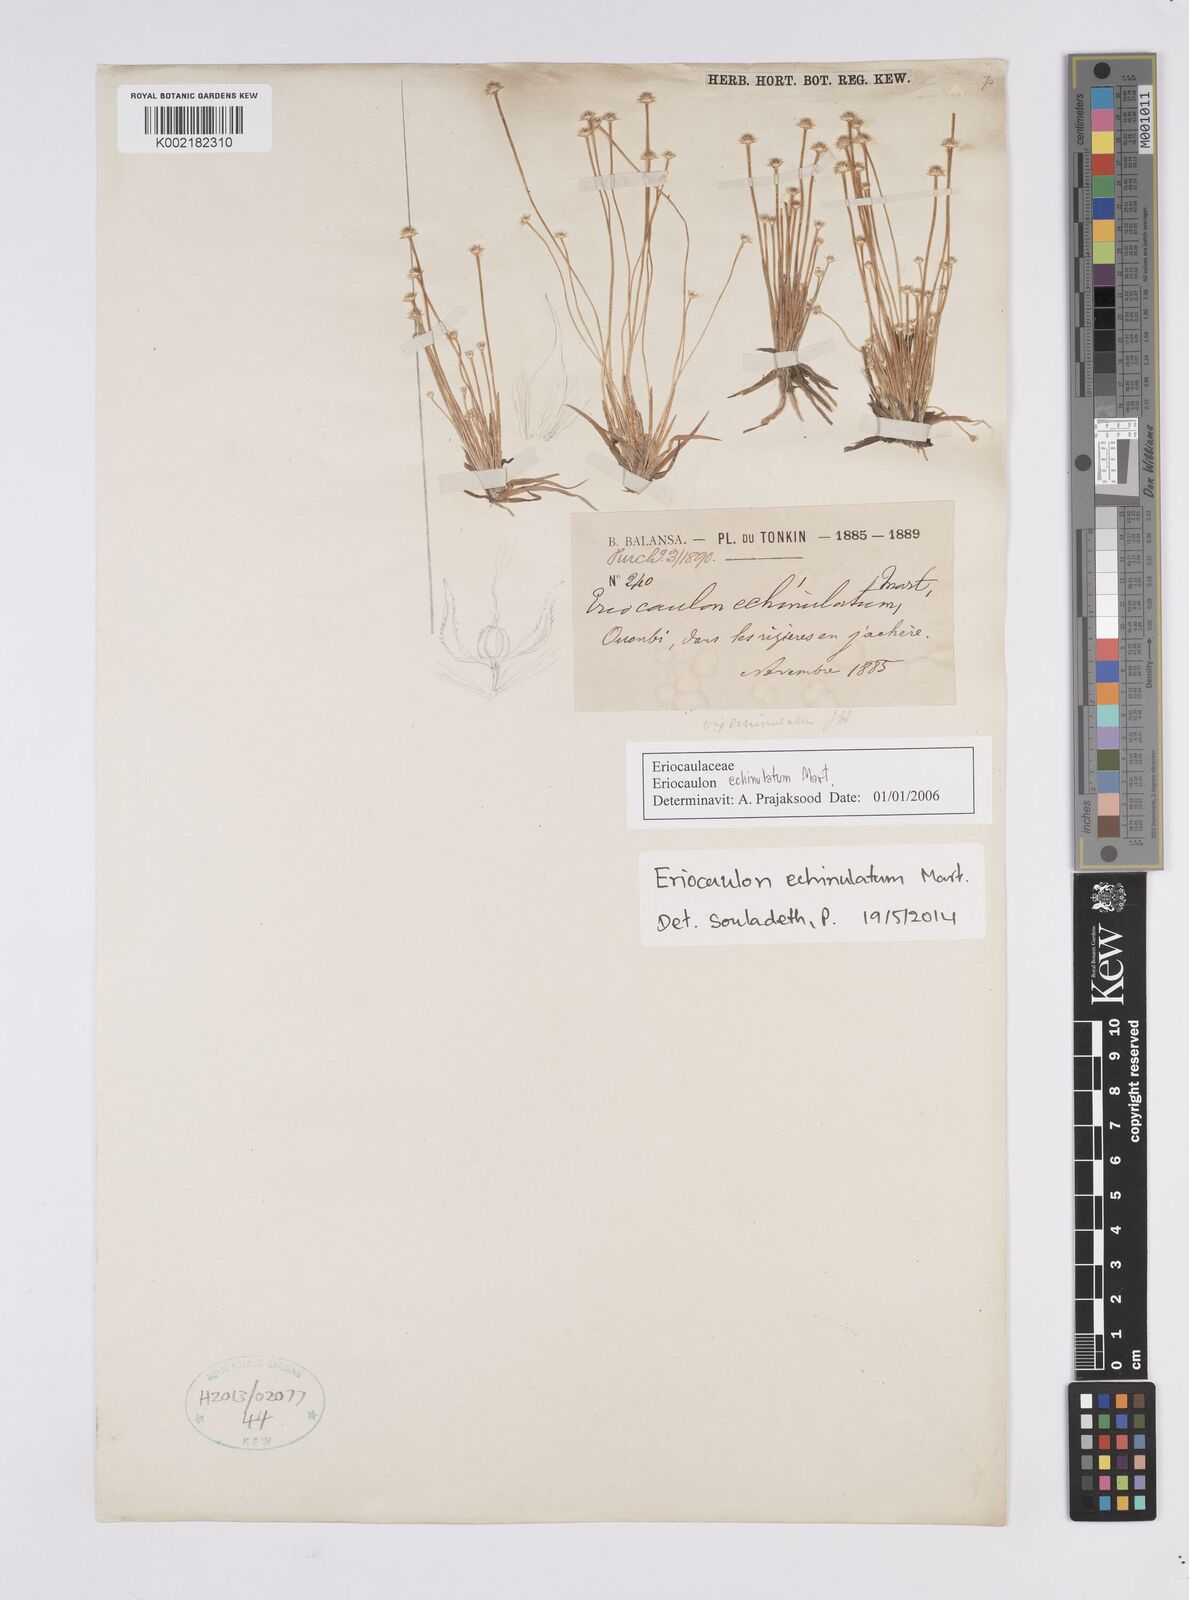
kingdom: Plantae
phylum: Tracheophyta
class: Liliopsida
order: Poales
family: Eriocaulaceae
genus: Eriocaulon
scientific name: Eriocaulon echinulatum
